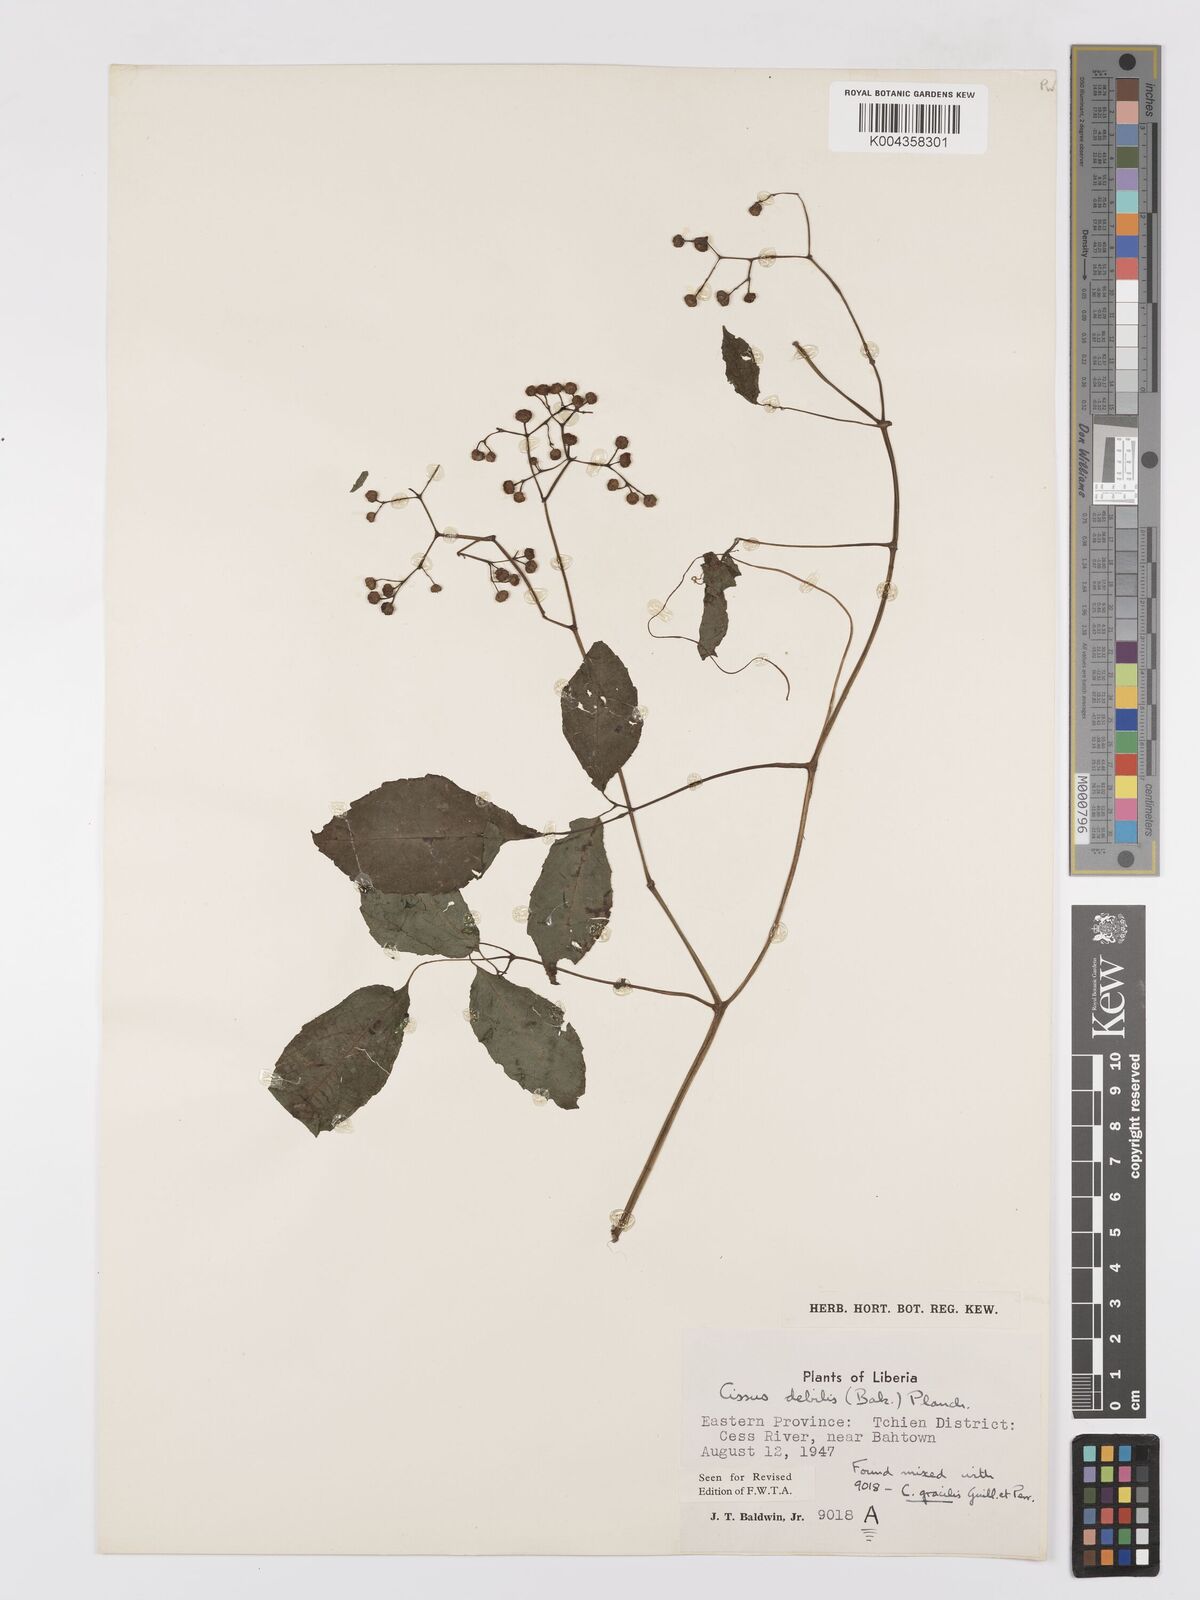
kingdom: Plantae
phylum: Tracheophyta
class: Magnoliopsida
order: Vitales
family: Vitaceae
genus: Afrocayratia
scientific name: Afrocayratia debilis
